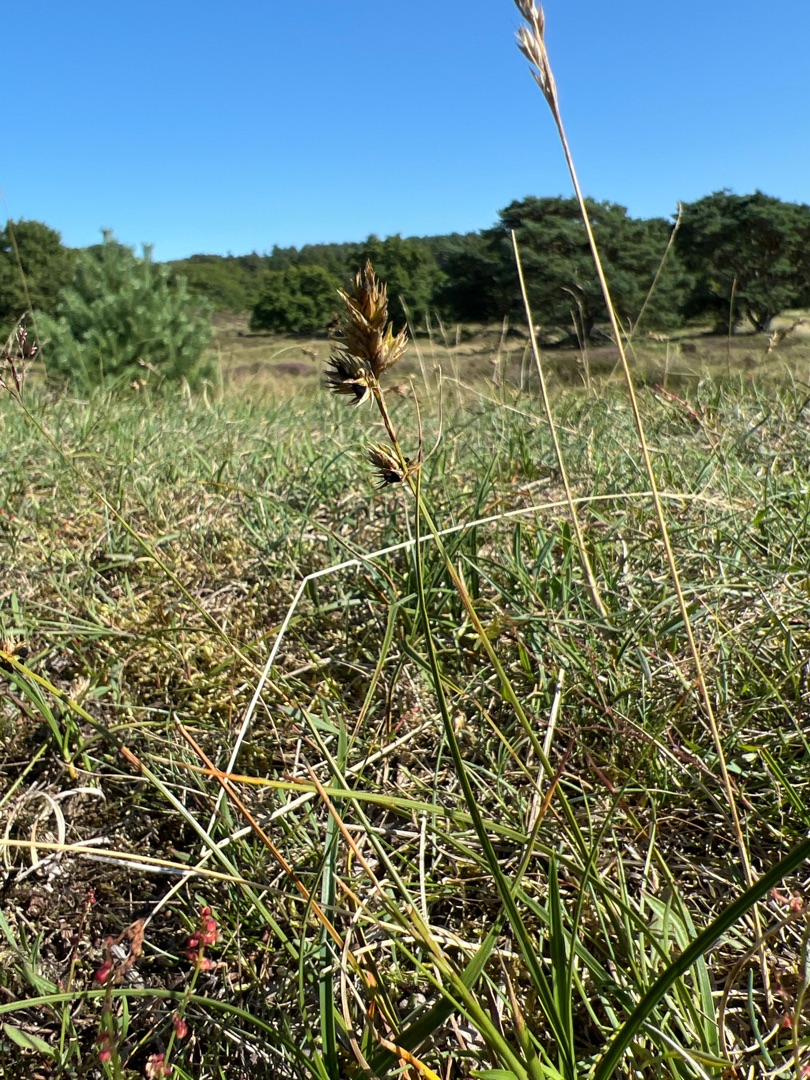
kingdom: Plantae
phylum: Tracheophyta
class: Liliopsida
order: Poales
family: Cyperaceae
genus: Carex
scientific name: Carex arenaria
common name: Sand-star
